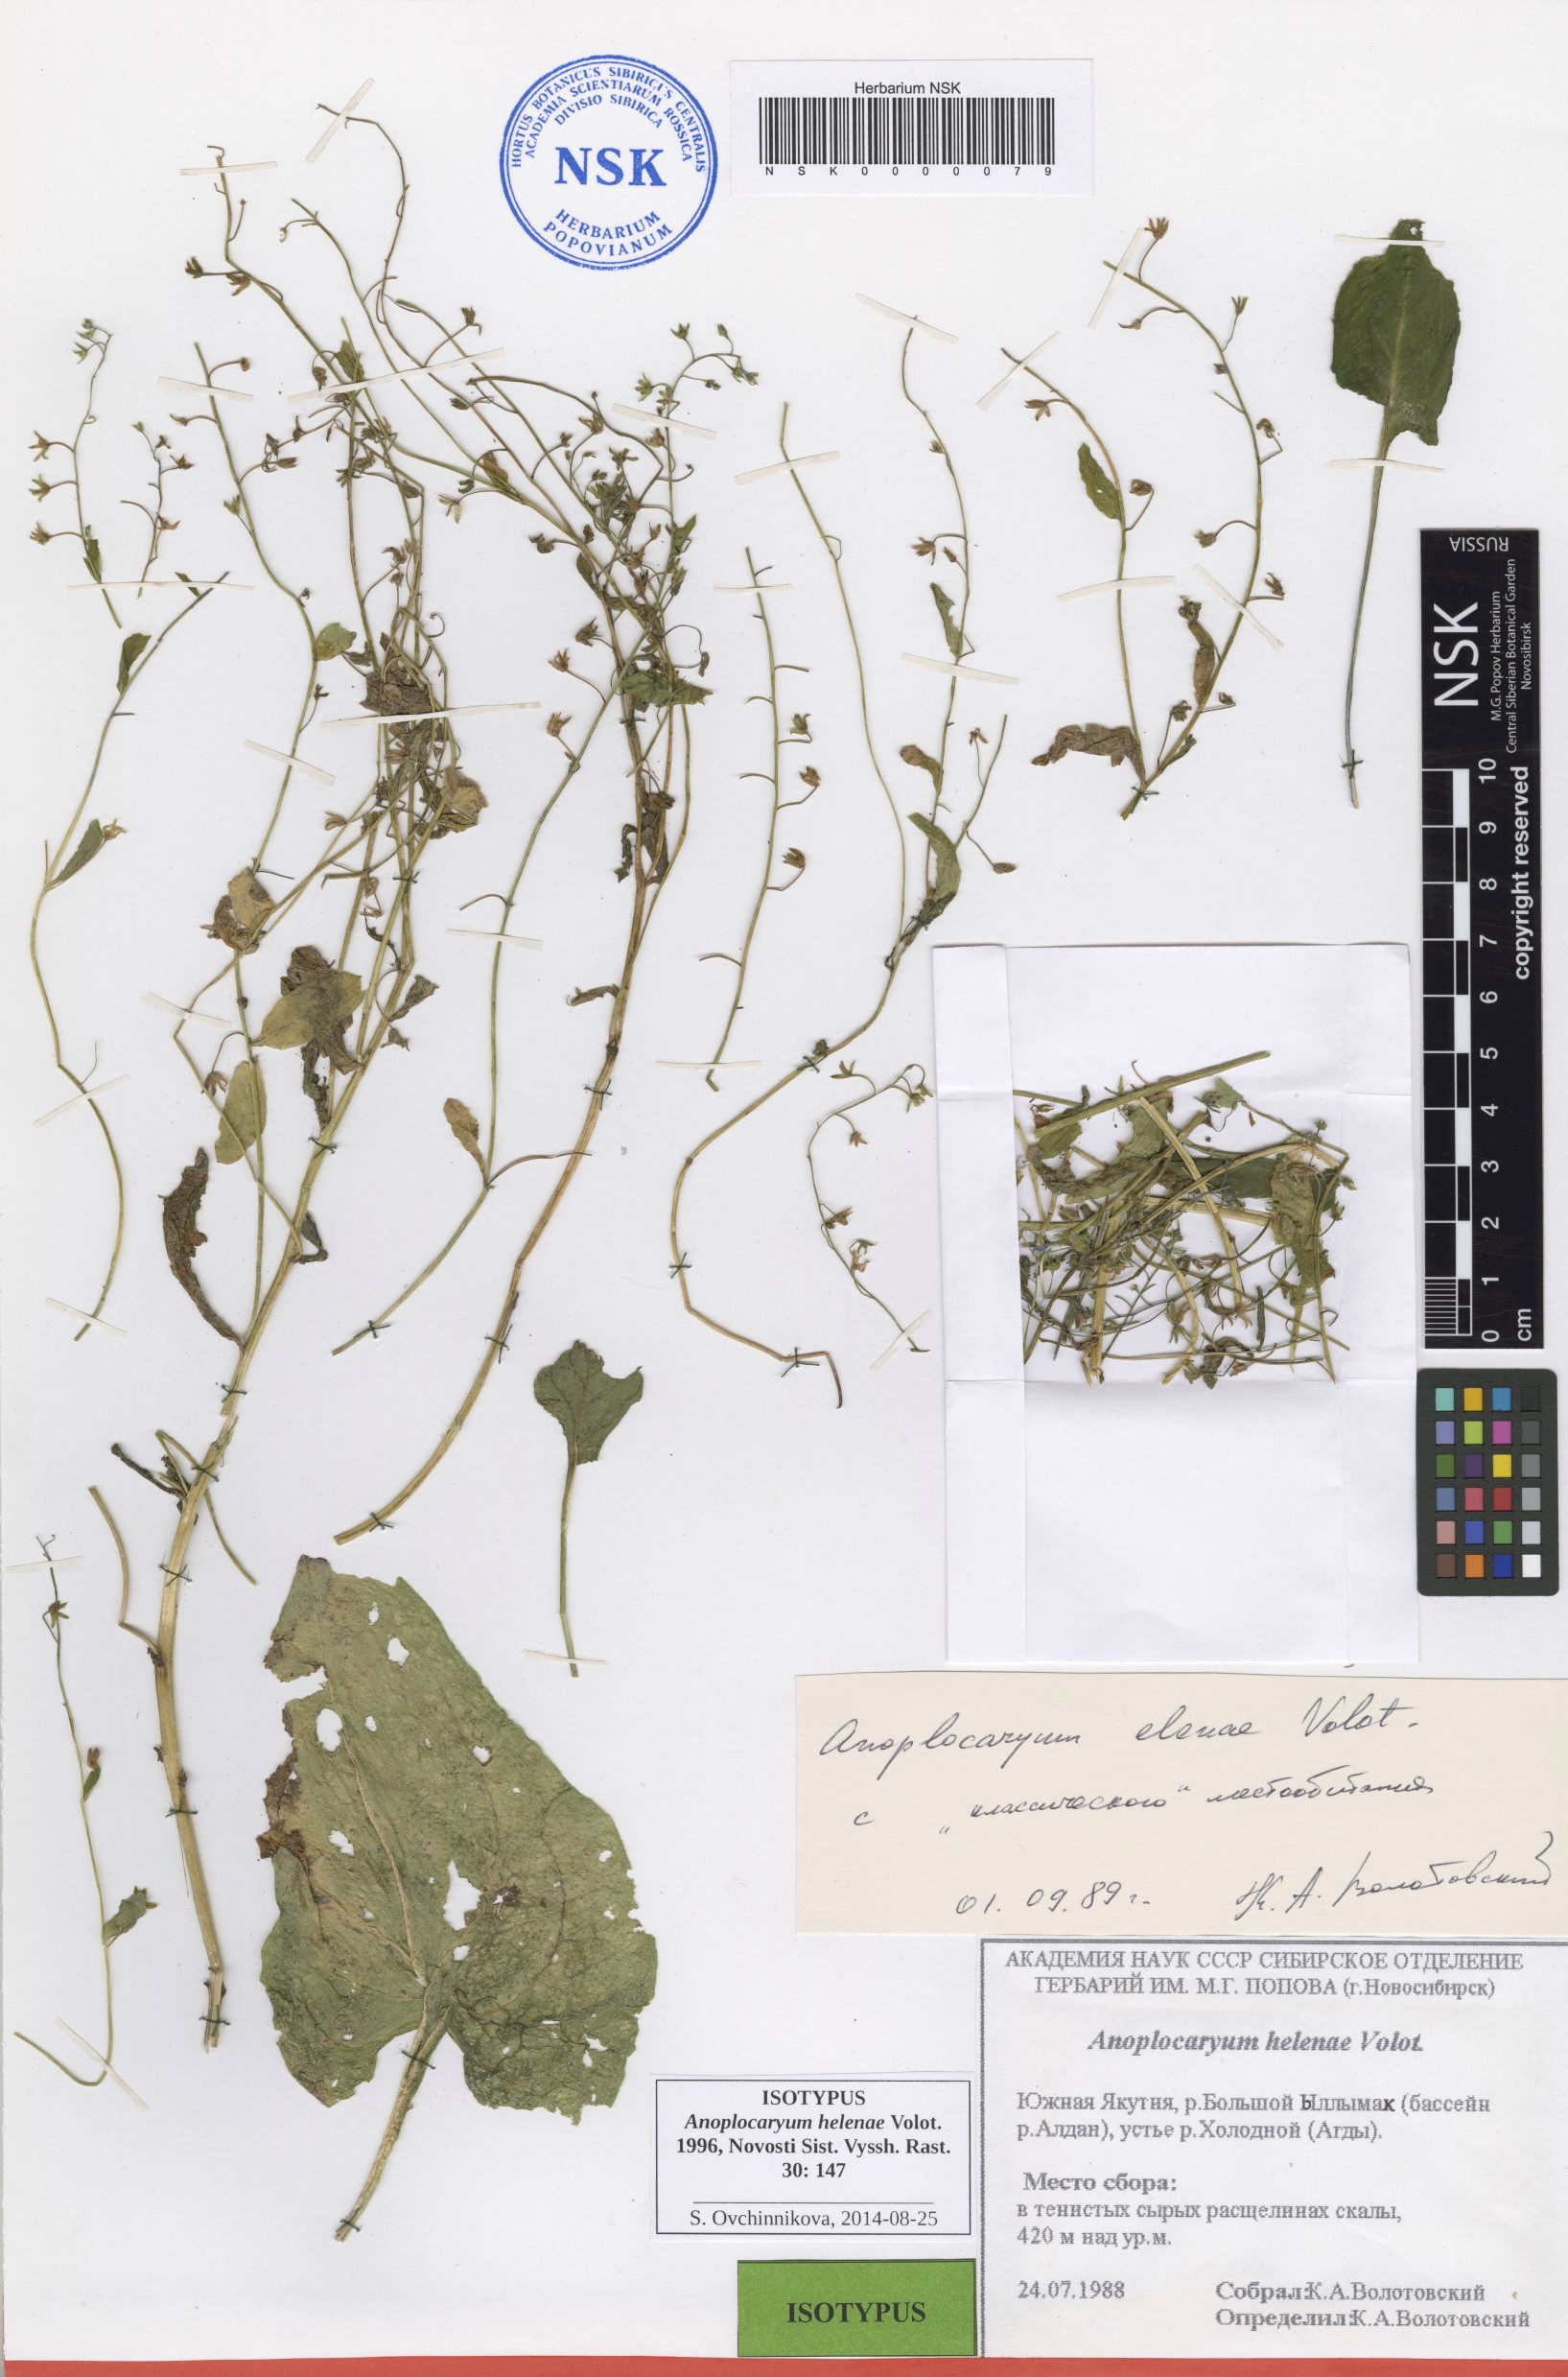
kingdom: Plantae
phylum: Tracheophyta
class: Magnoliopsida
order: Boraginales
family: Boraginaceae
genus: Anoplocaryum
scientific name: Anoplocaryum helenae
